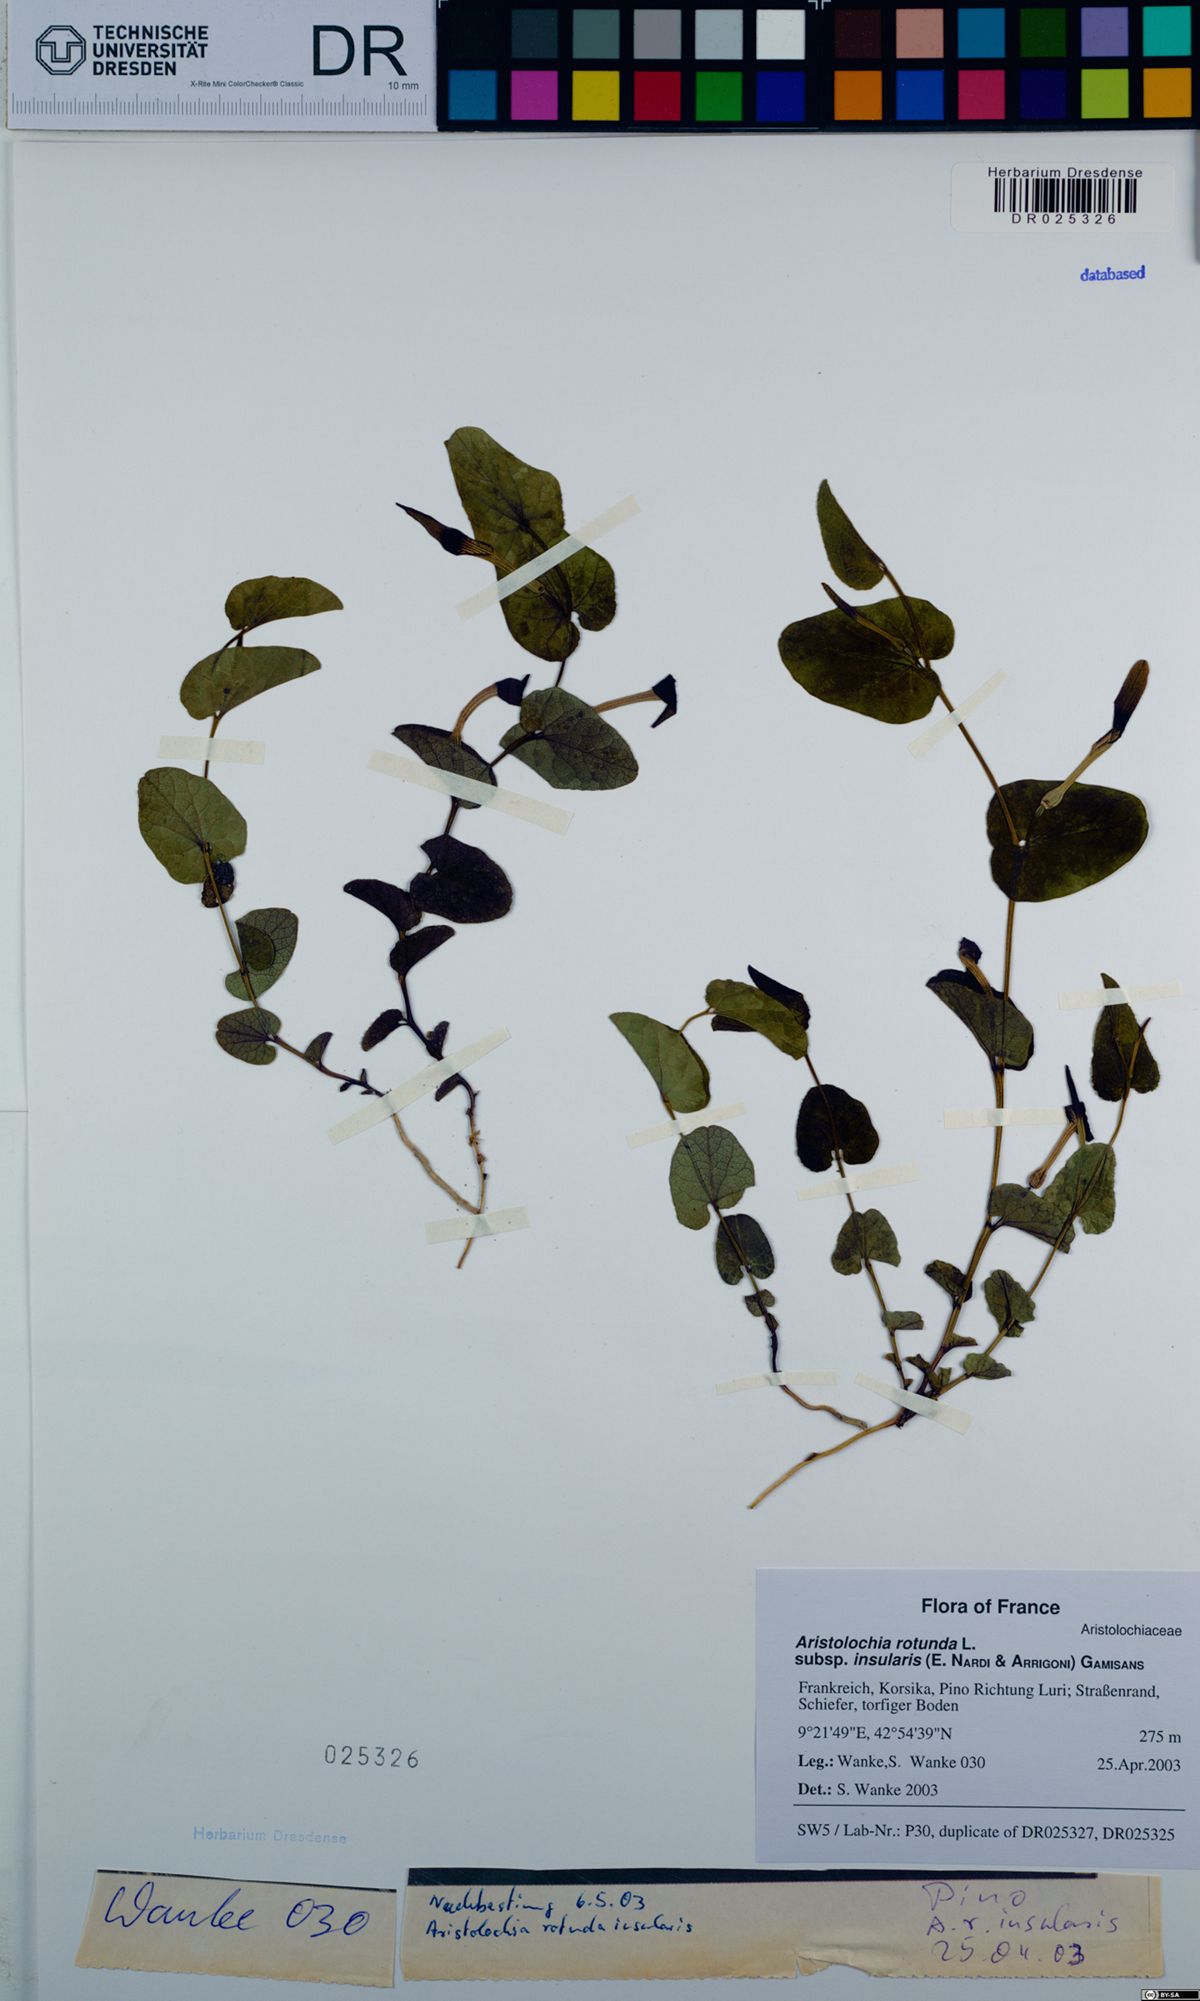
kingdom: Plantae
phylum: Tracheophyta
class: Magnoliopsida
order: Piperales
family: Aristolochiaceae
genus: Aristolochia
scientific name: Aristolochia rotunda
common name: Smearwort
